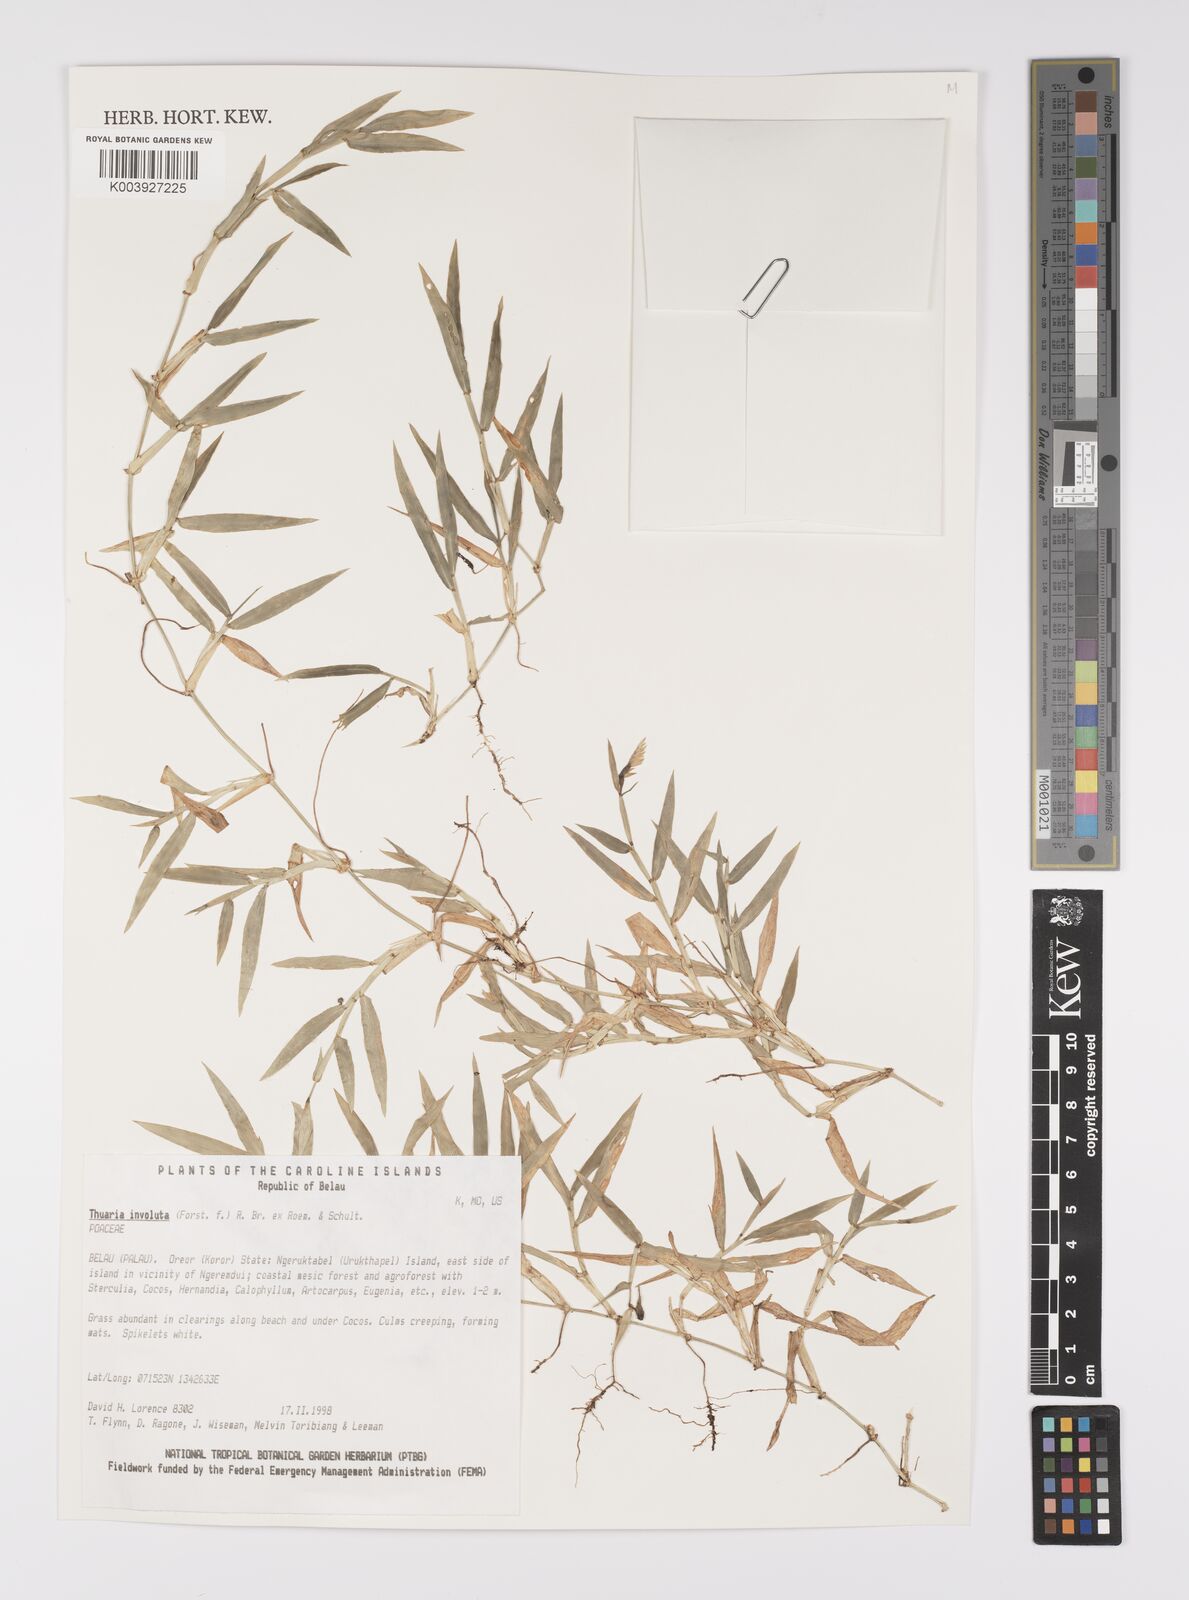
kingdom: Plantae
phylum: Tracheophyta
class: Liliopsida
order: Poales
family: Poaceae
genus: Thuarea
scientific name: Thuarea involuta
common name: Tropical beach grass
